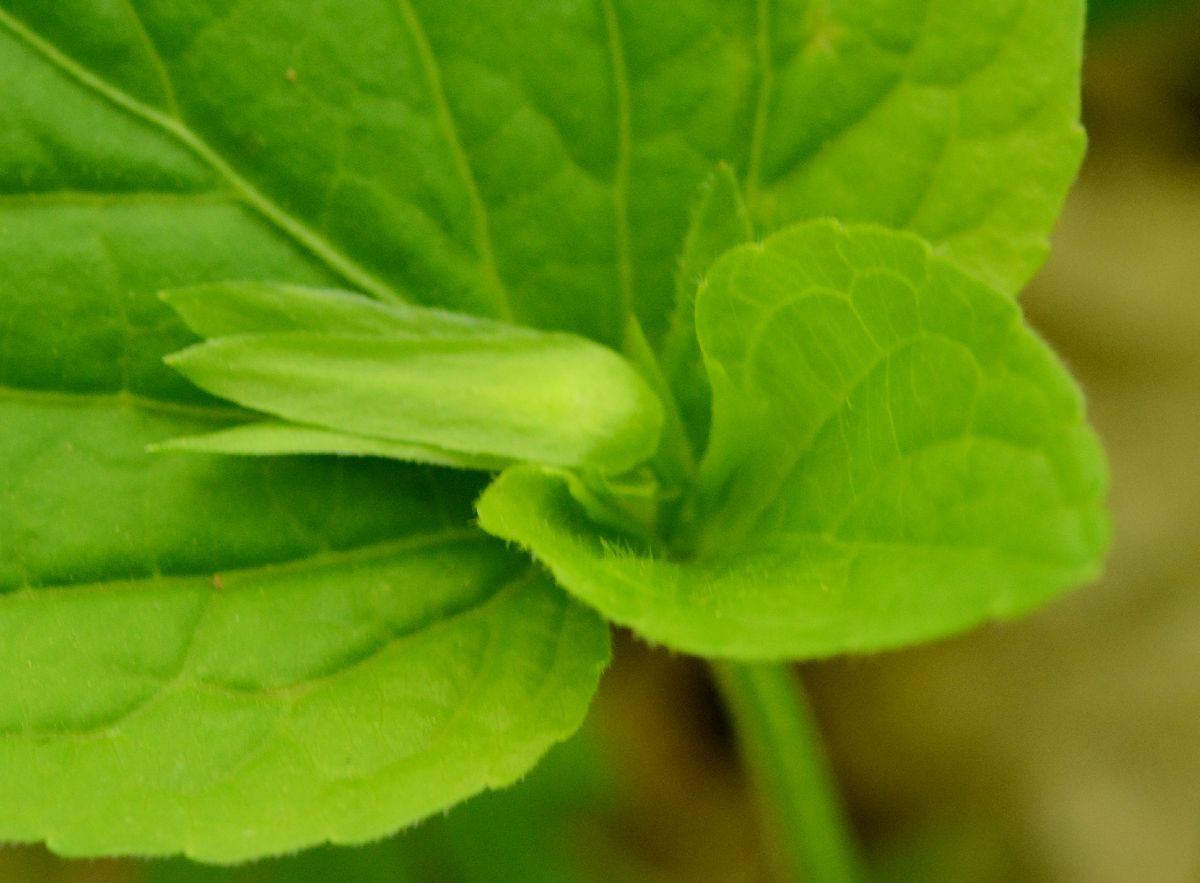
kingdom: Plantae
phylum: Tracheophyta
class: Magnoliopsida
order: Malpighiales
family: Violaceae
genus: Viola
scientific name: Viola mirabilis
